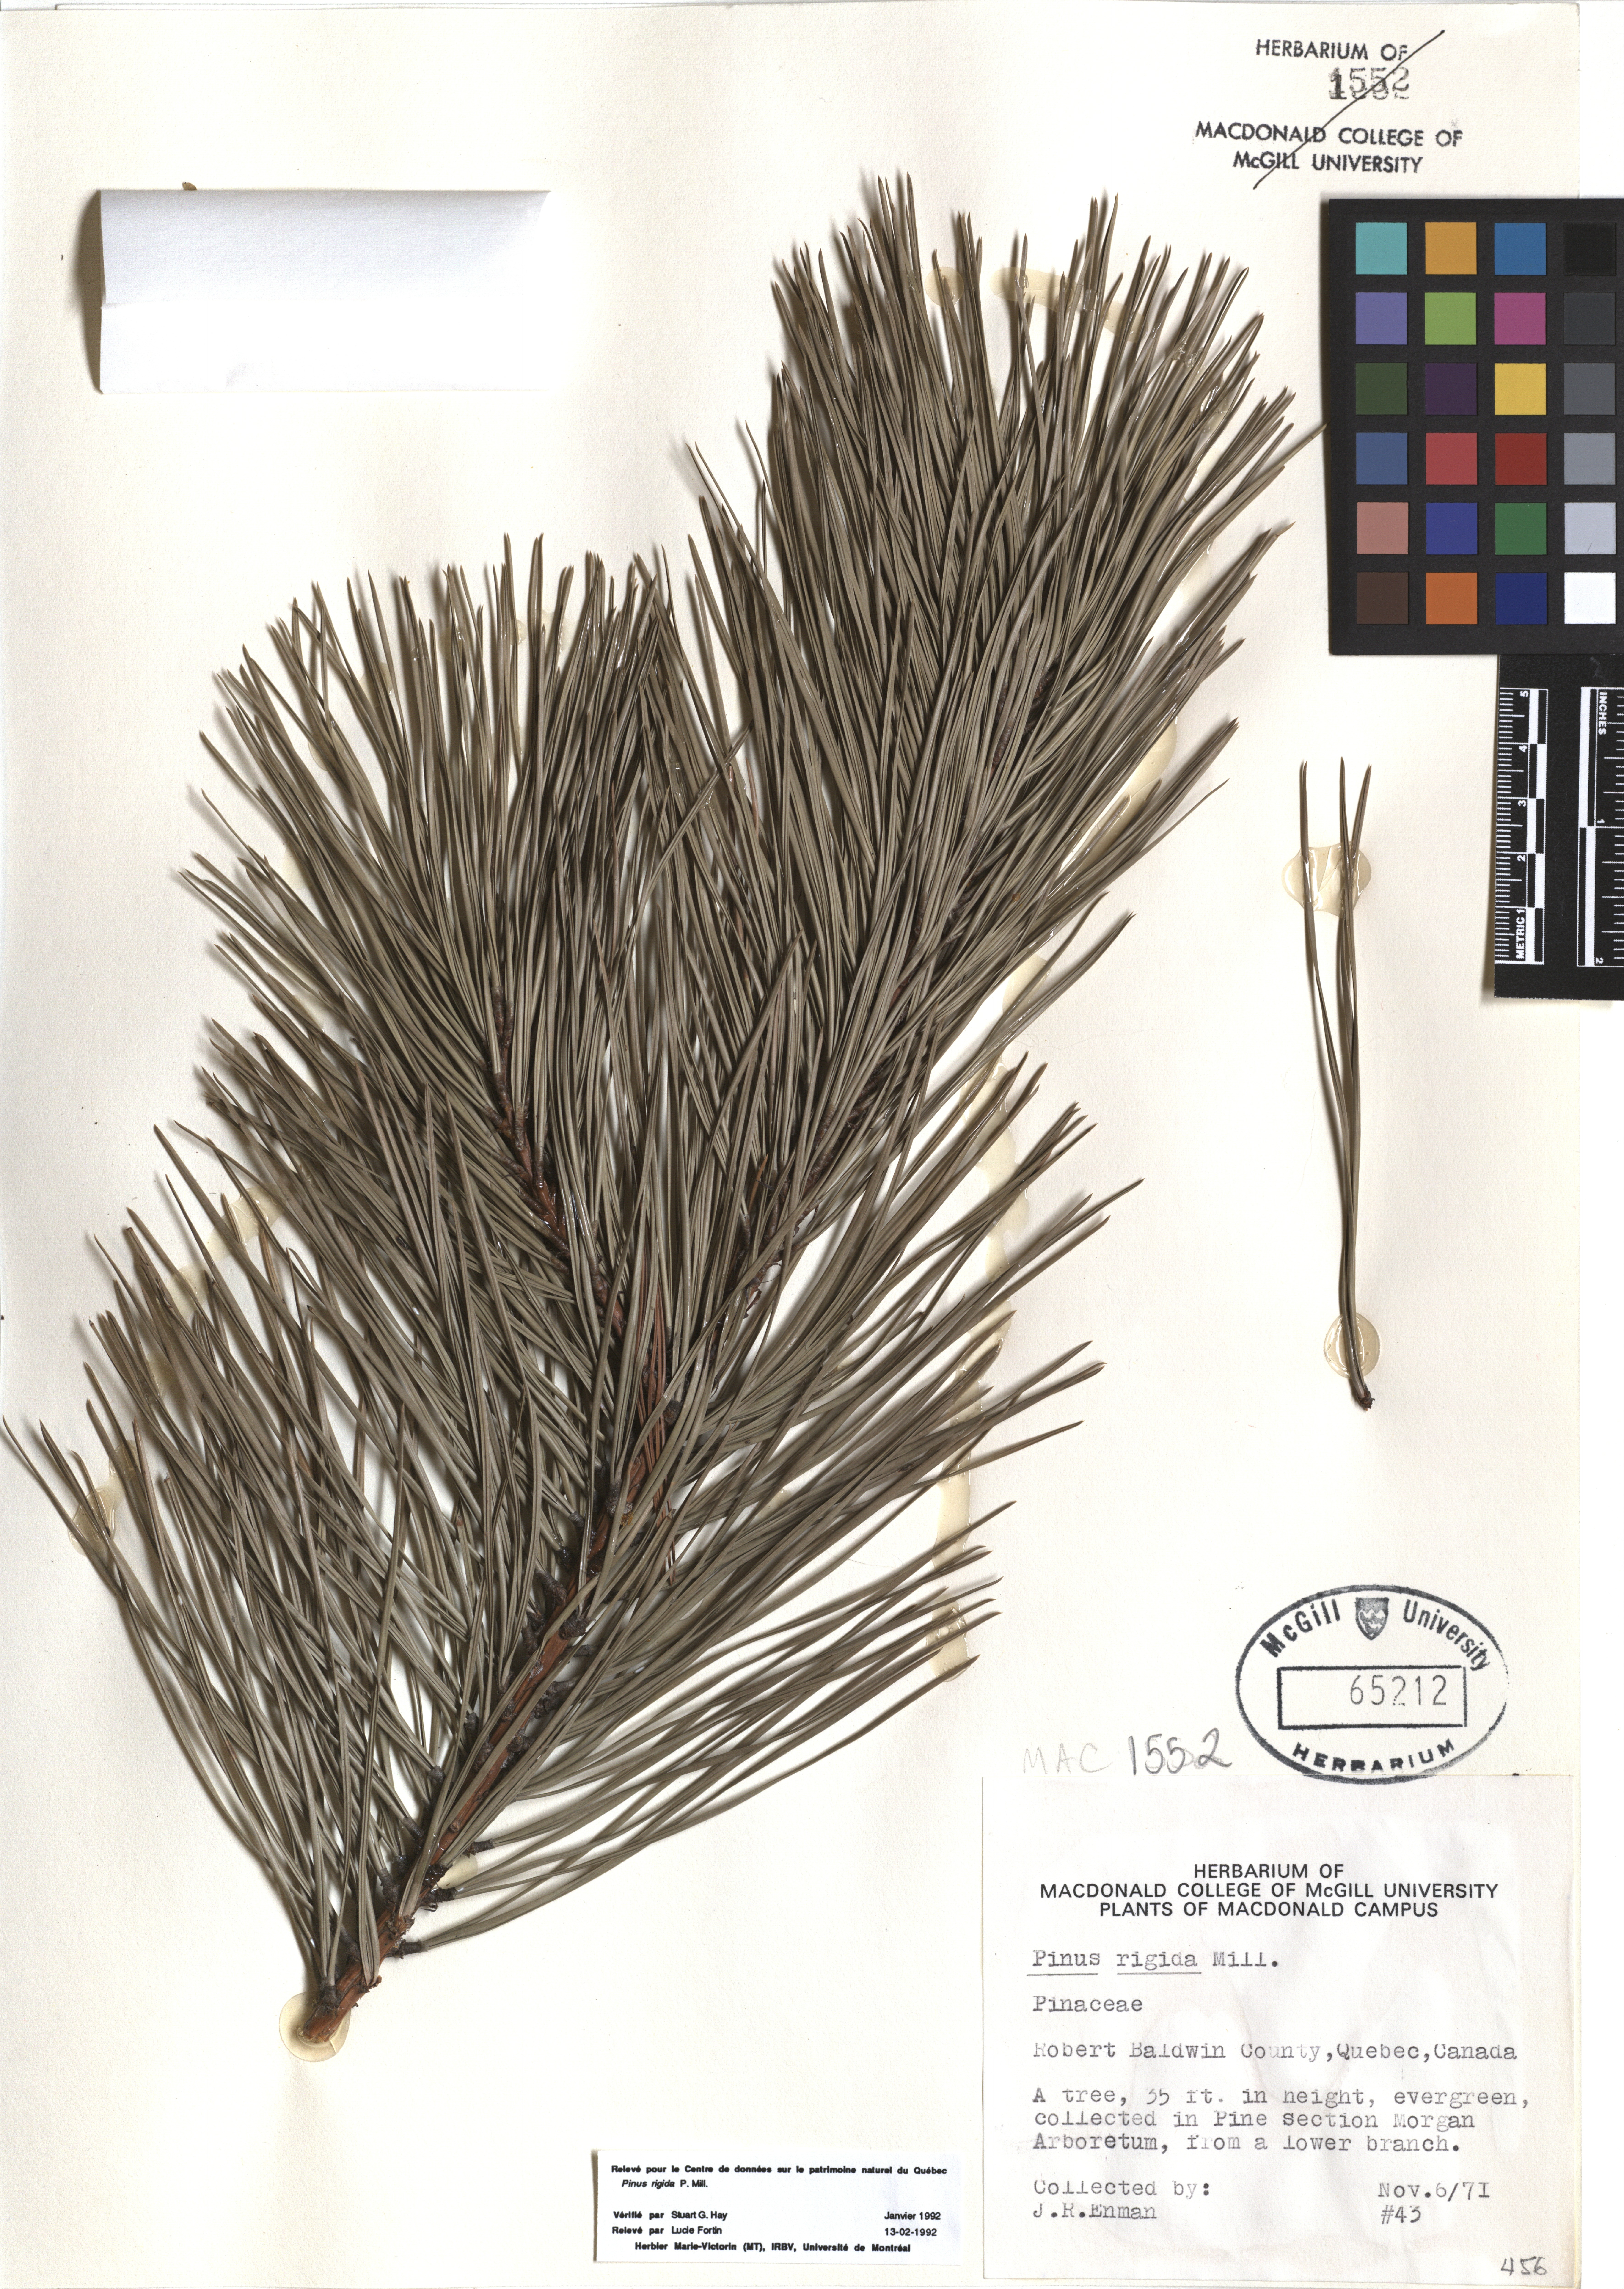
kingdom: Plantae
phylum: Tracheophyta
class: Pinopsida
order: Pinales
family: Pinaceae
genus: Pinus
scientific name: Pinus rigida
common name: Pitch pine
